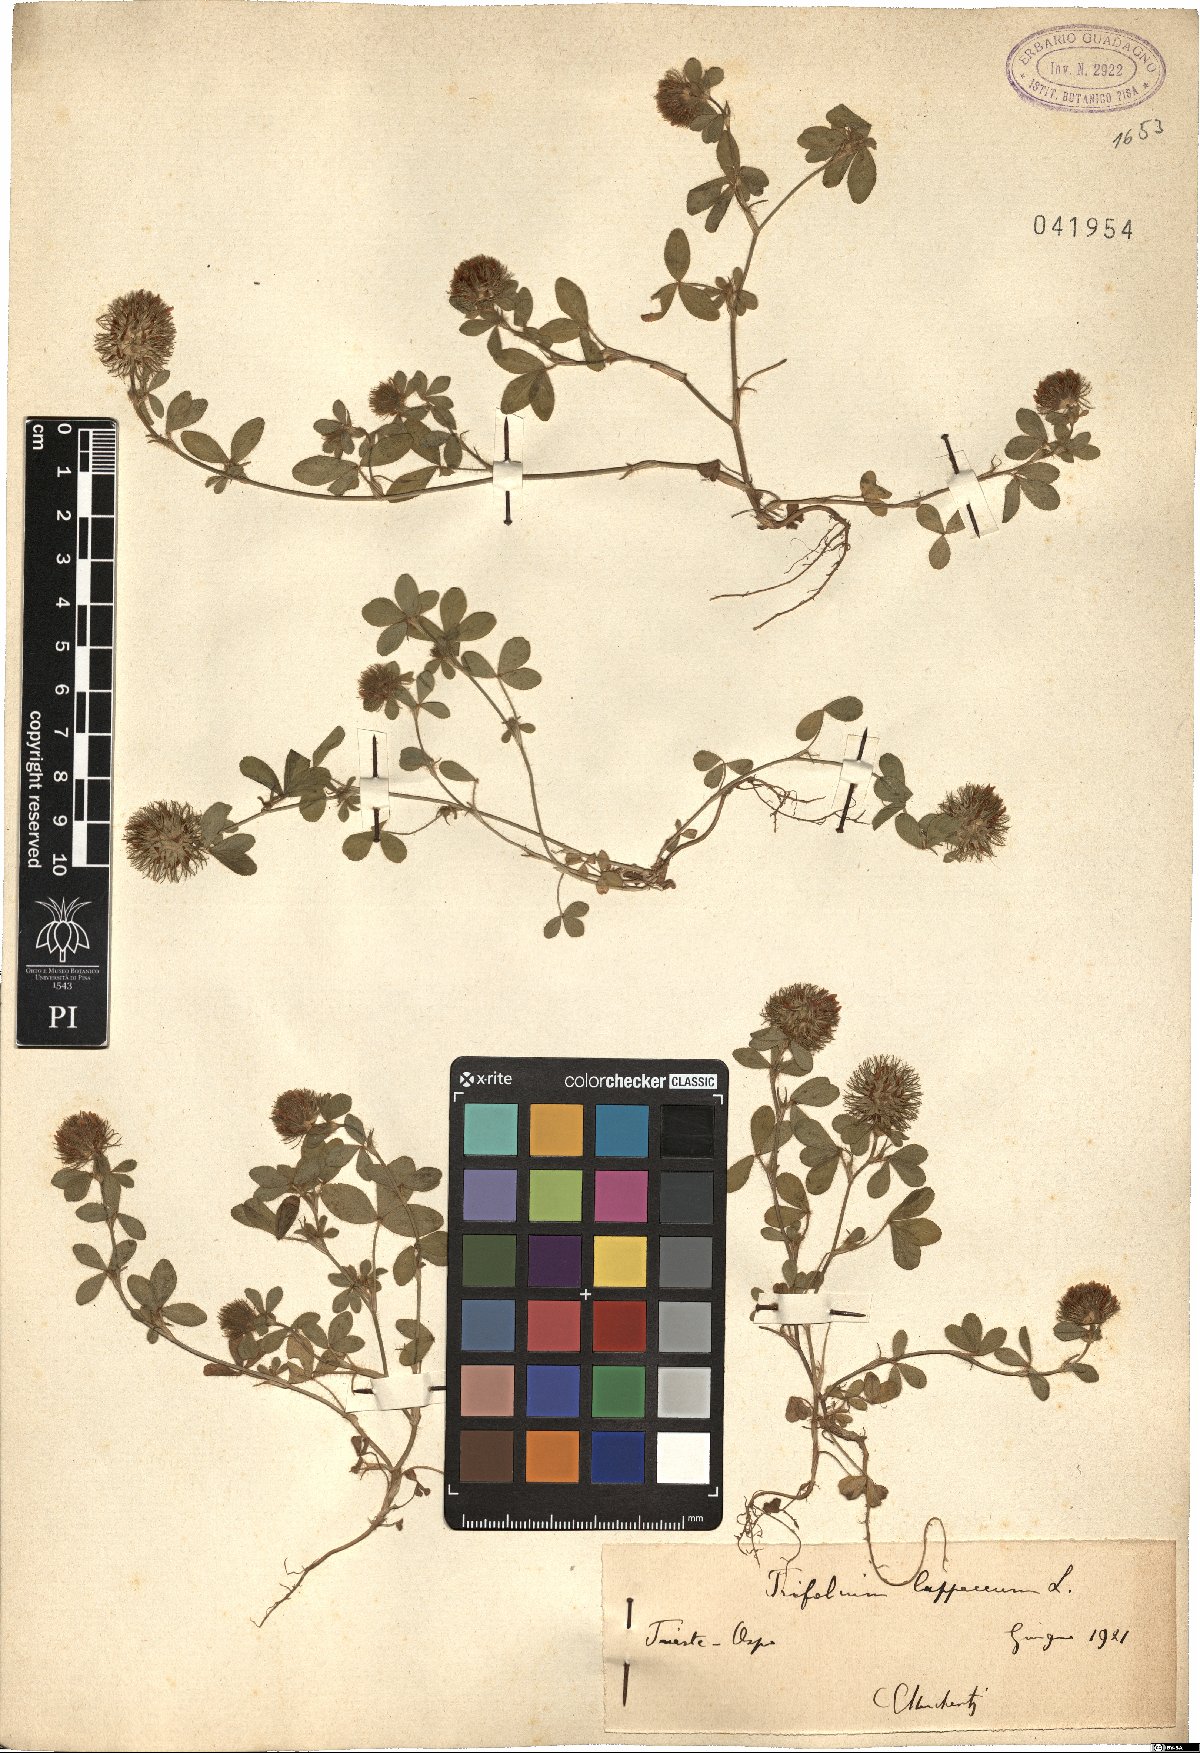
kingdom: Plantae
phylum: Tracheophyta
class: Magnoliopsida
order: Fabales
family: Fabaceae
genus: Trifolium
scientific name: Trifolium lappaceum
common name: Bur clover
